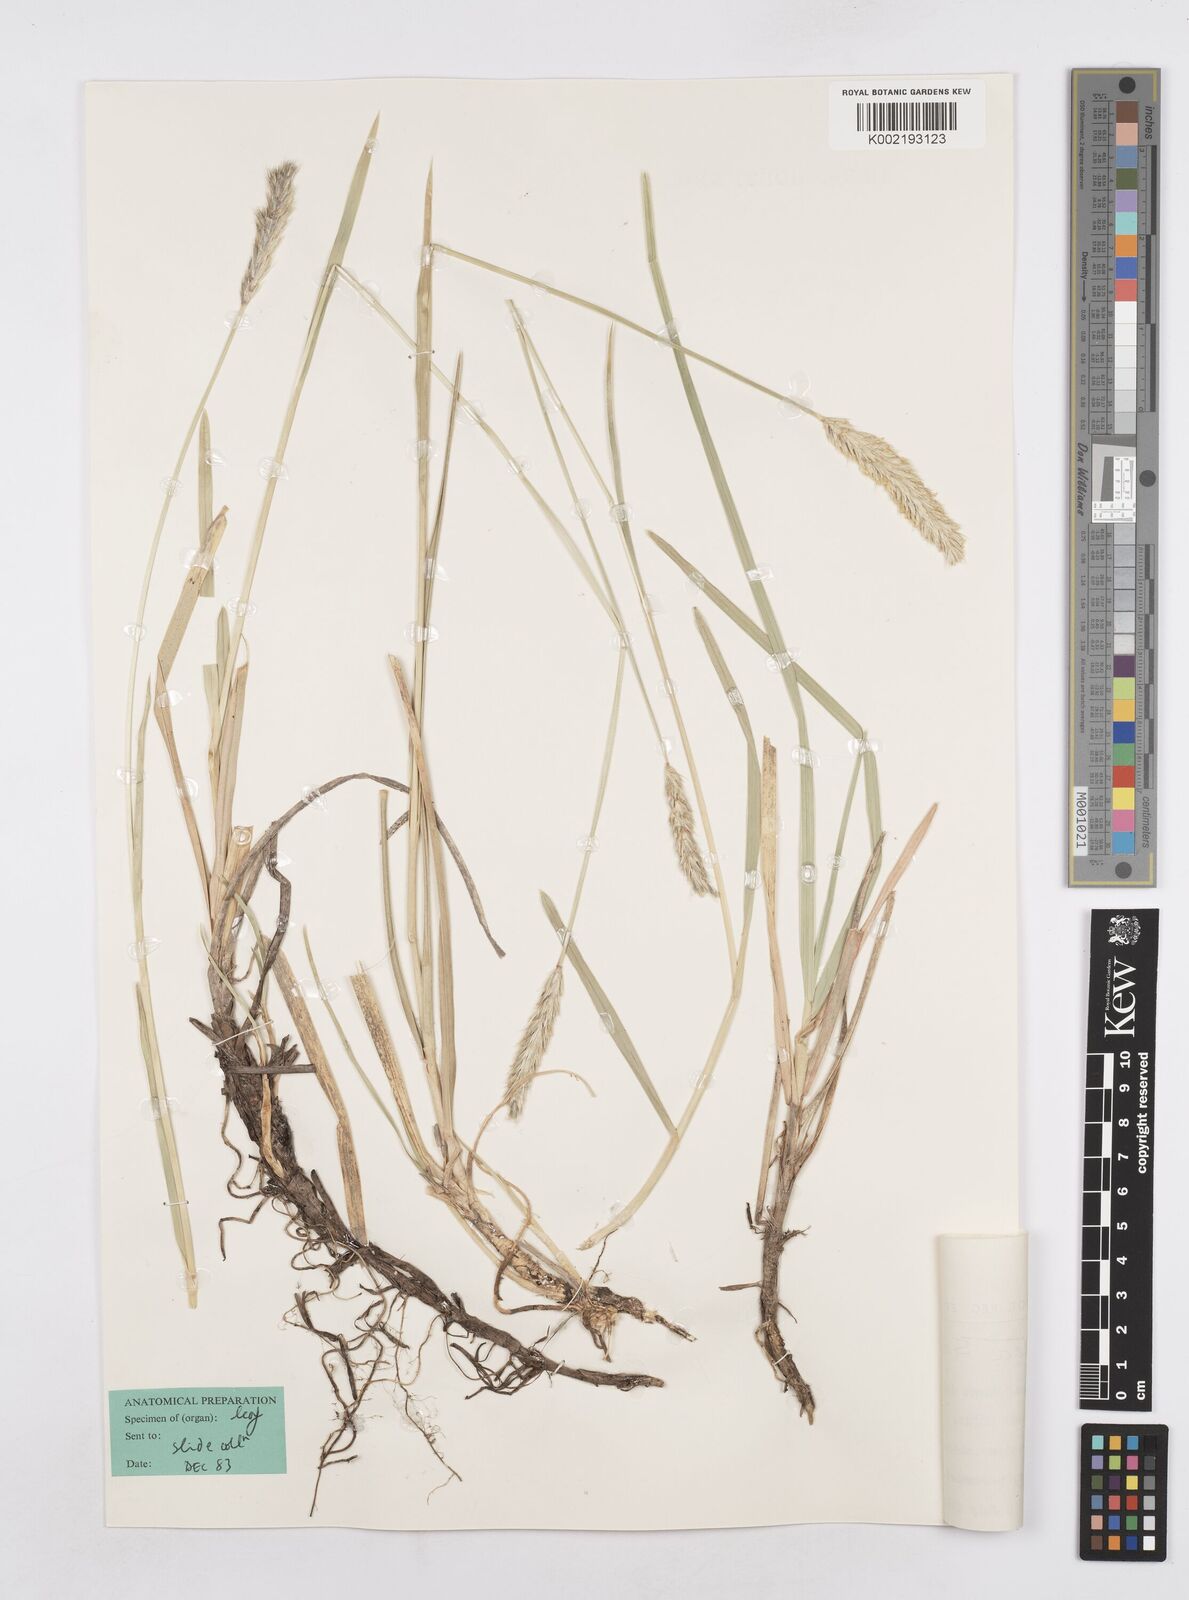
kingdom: Plantae
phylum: Tracheophyta
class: Liliopsida
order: Poales
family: Poaceae
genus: Sesleria
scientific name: Sesleria argentea
